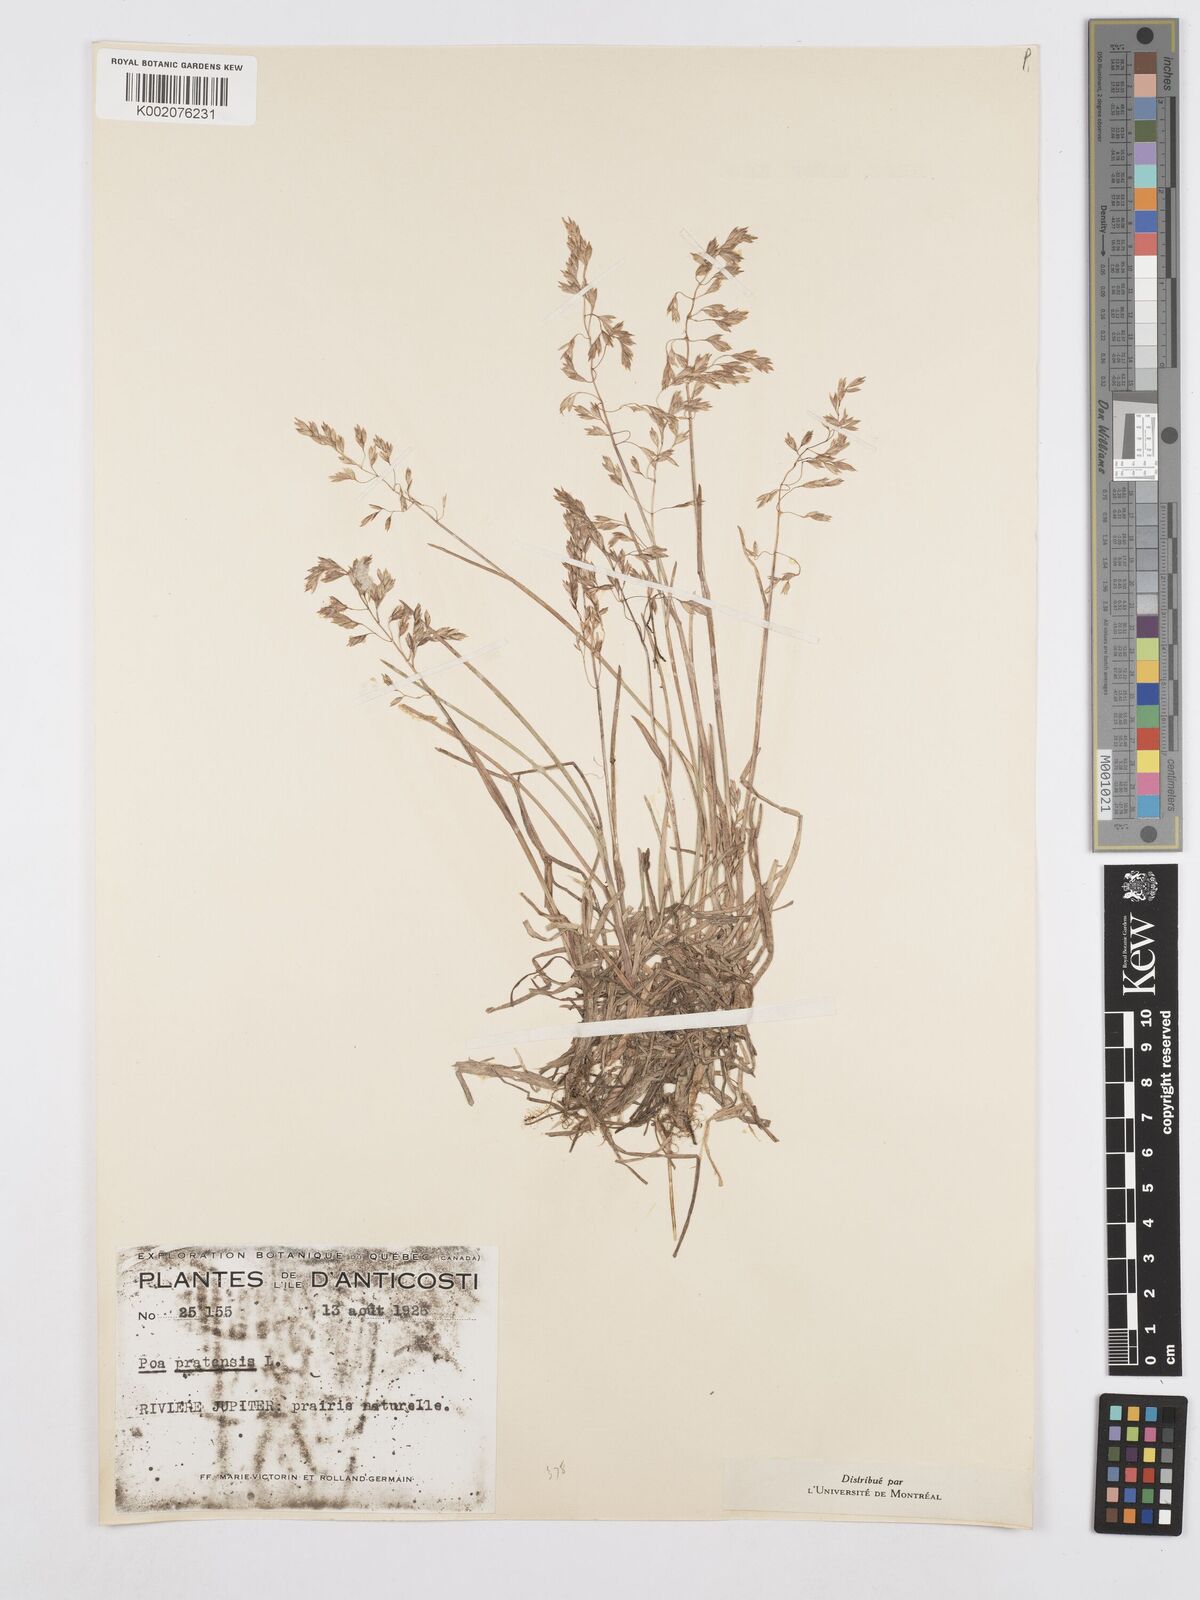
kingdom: Plantae
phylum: Tracheophyta
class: Liliopsida
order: Poales
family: Poaceae
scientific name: Poaceae
